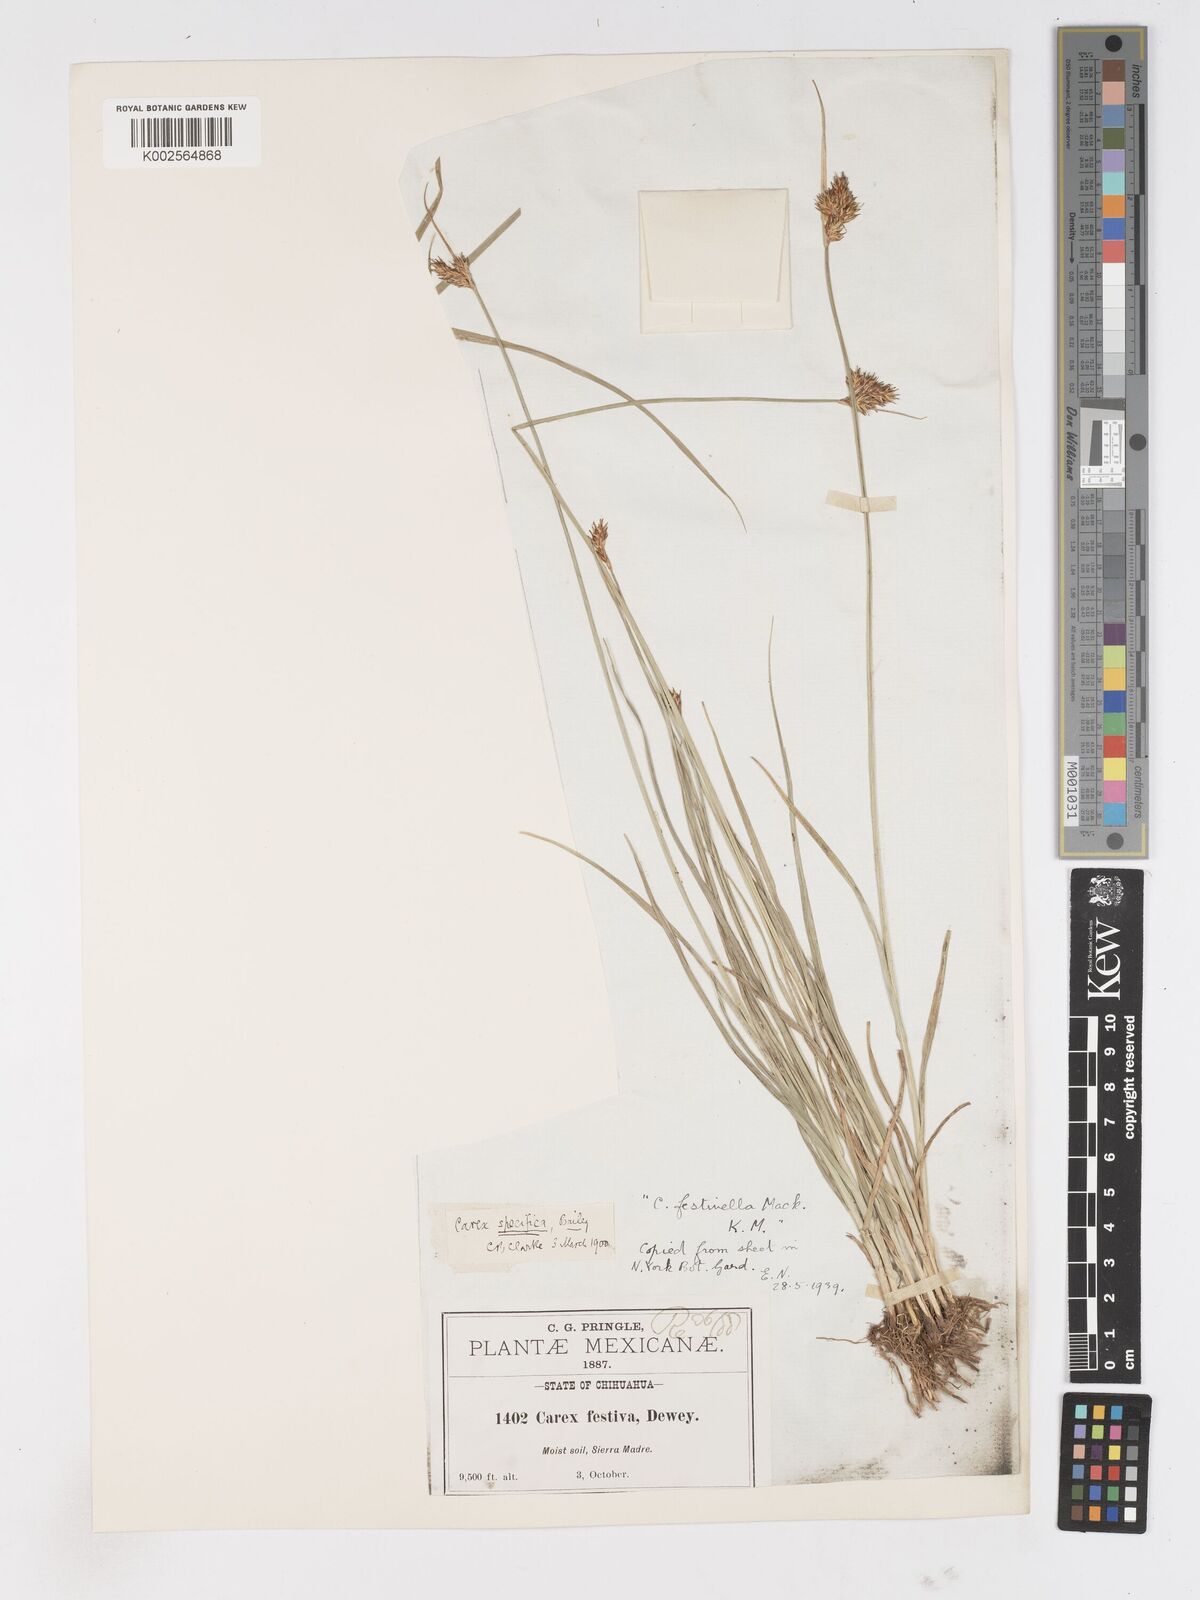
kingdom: Plantae
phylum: Tracheophyta
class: Liliopsida
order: Poales
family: Cyperaceae
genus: Carex
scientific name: Carex microptera
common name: Oval-headed sedge
